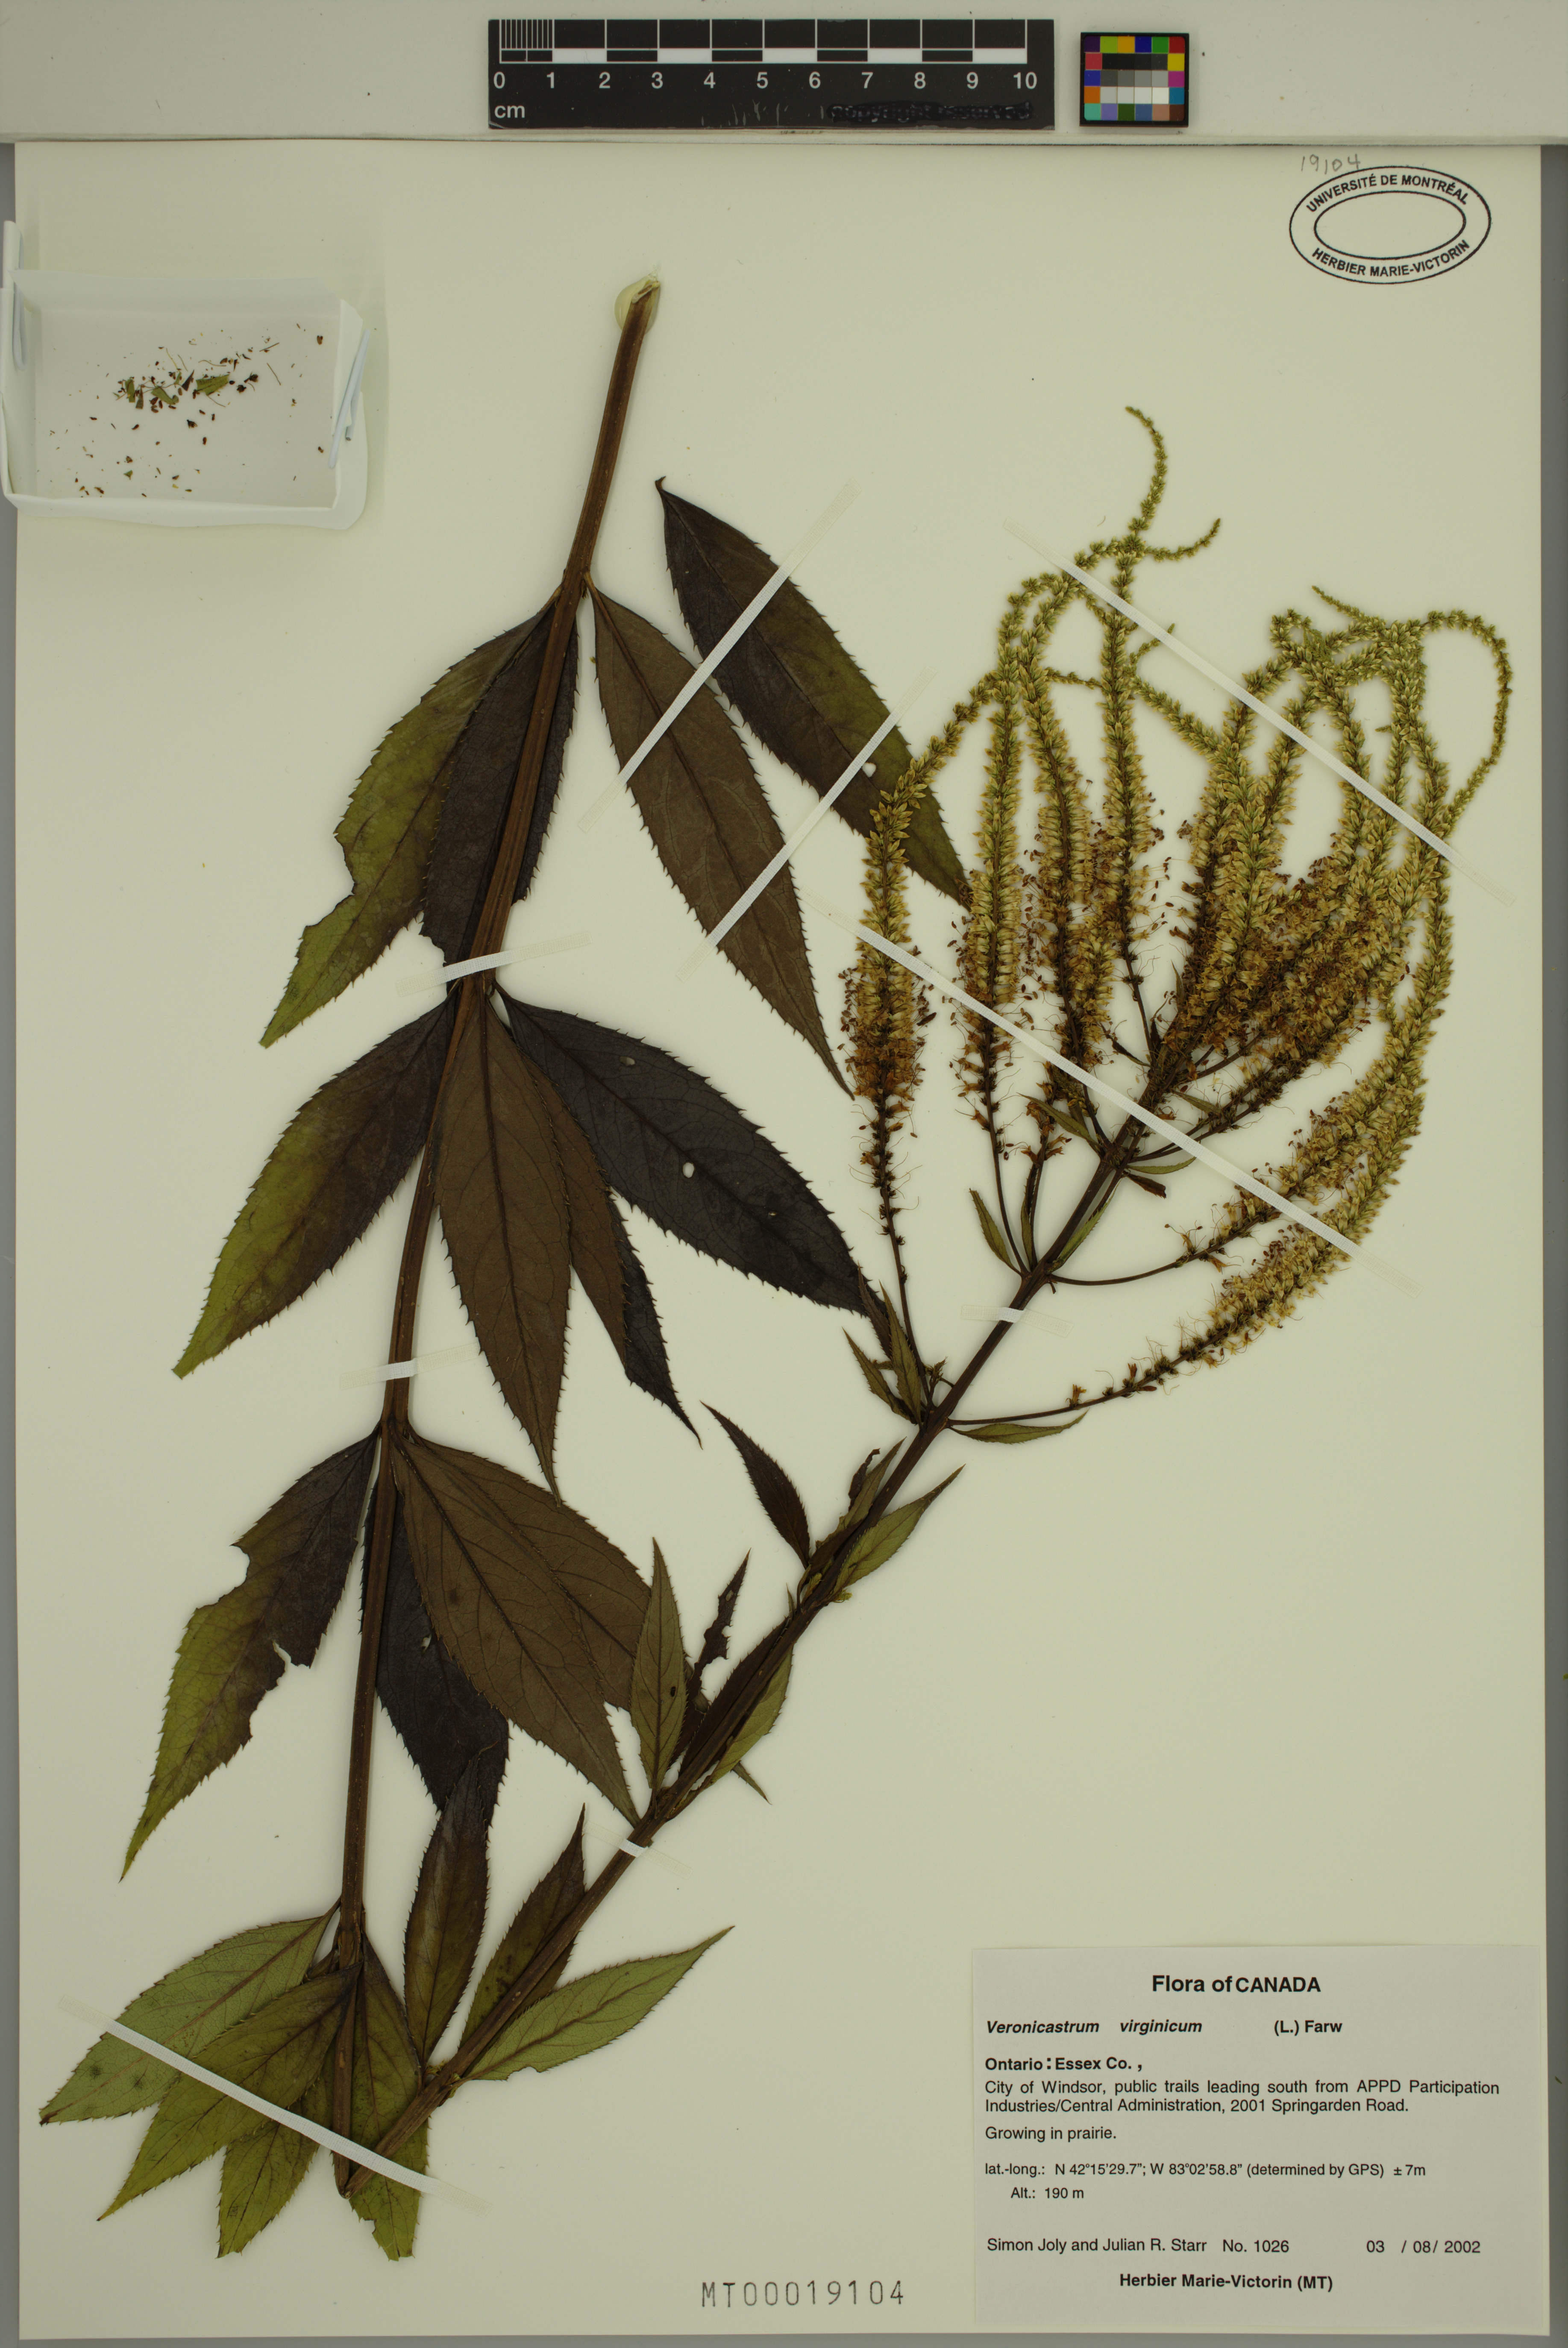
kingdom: Plantae
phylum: Tracheophyta
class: Magnoliopsida
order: Lamiales
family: Plantaginaceae
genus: Veronicastrum
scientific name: Veronicastrum virginicum
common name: Blackroot
